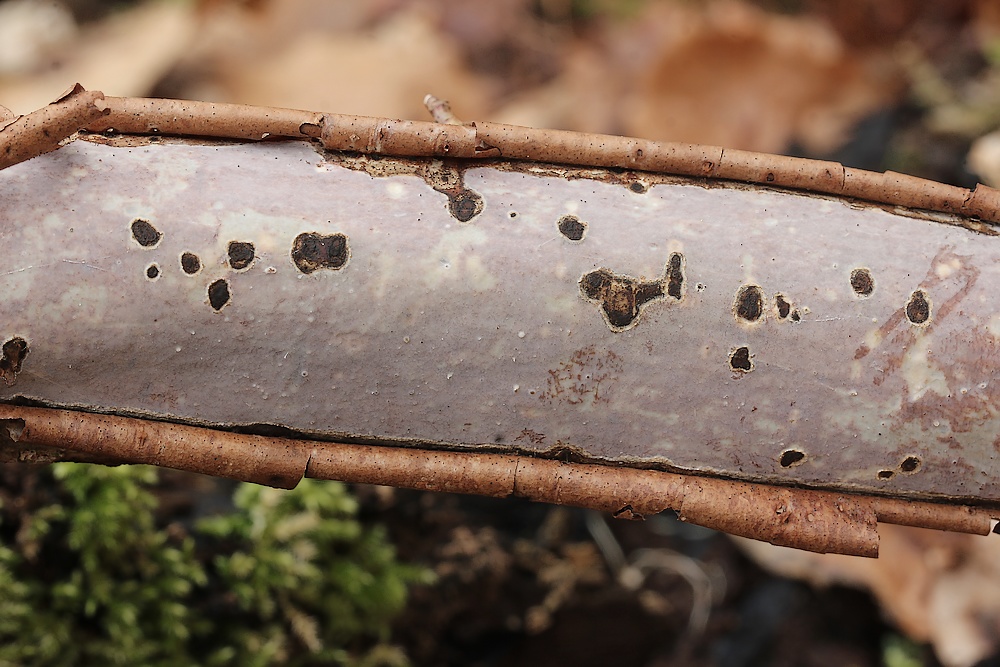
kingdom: Fungi
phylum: Basidiomycota
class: Agaricomycetes
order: Corticiales
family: Vuilleminiaceae
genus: Vuilleminia
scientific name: Vuilleminia coryli
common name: hassel-barksprænger
